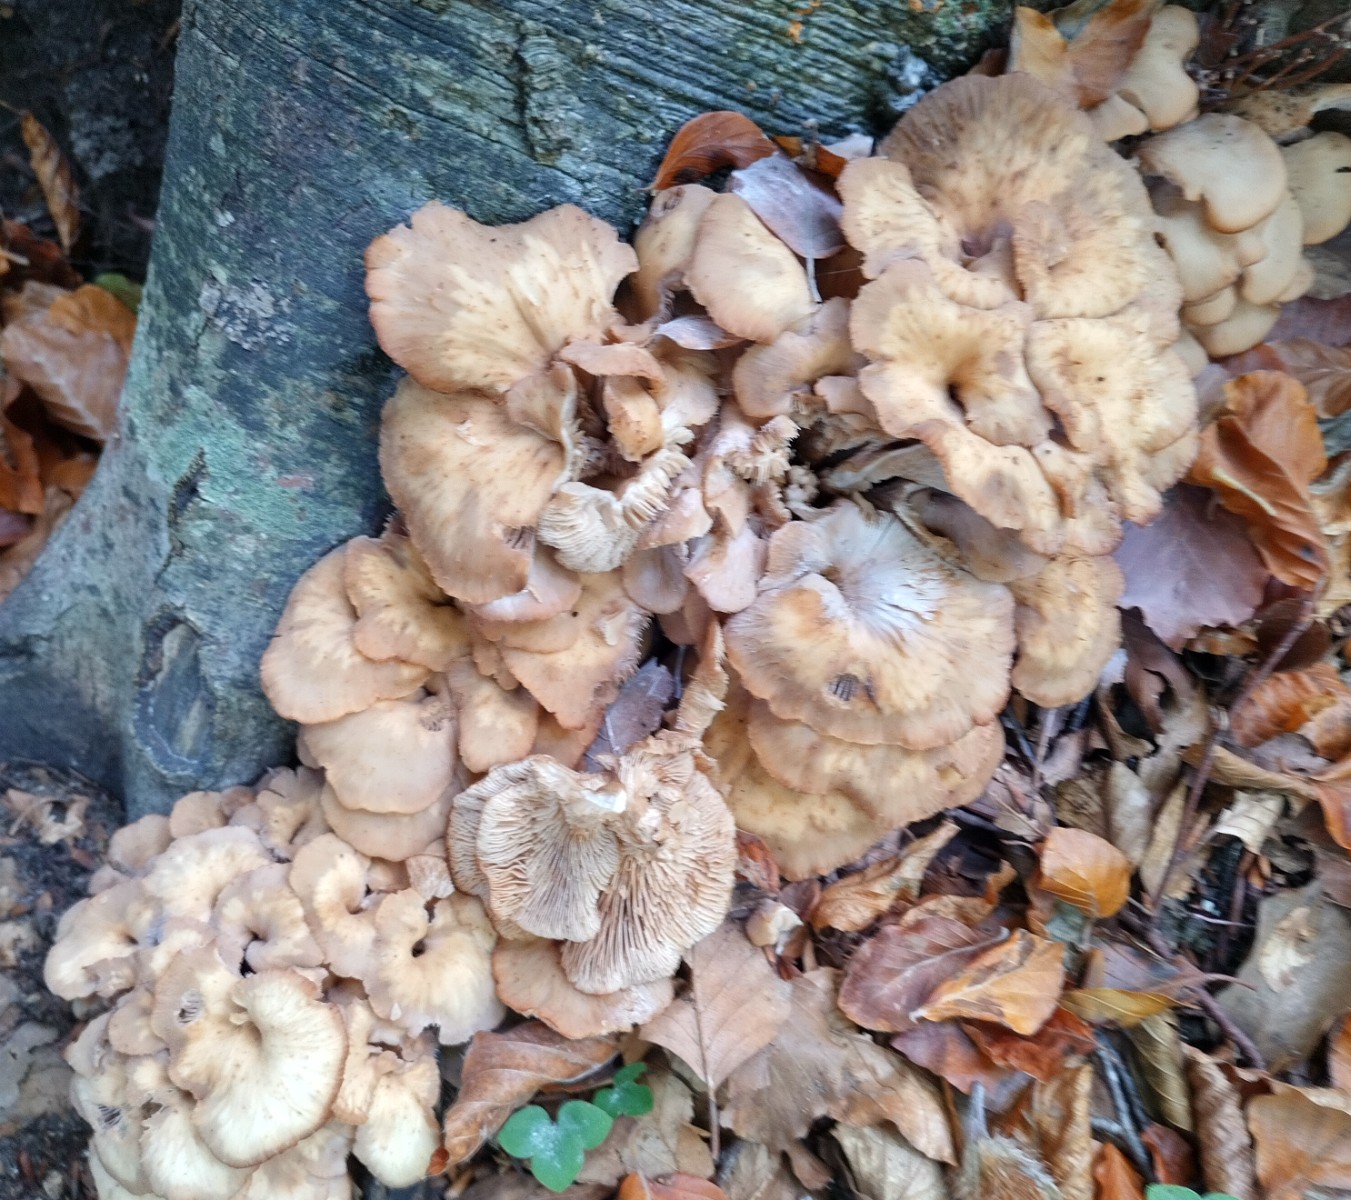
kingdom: Fungi
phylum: Basidiomycota
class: Agaricomycetes
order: Russulales
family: Auriscalpiaceae
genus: Lentinellus
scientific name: Lentinellus cochleatus
